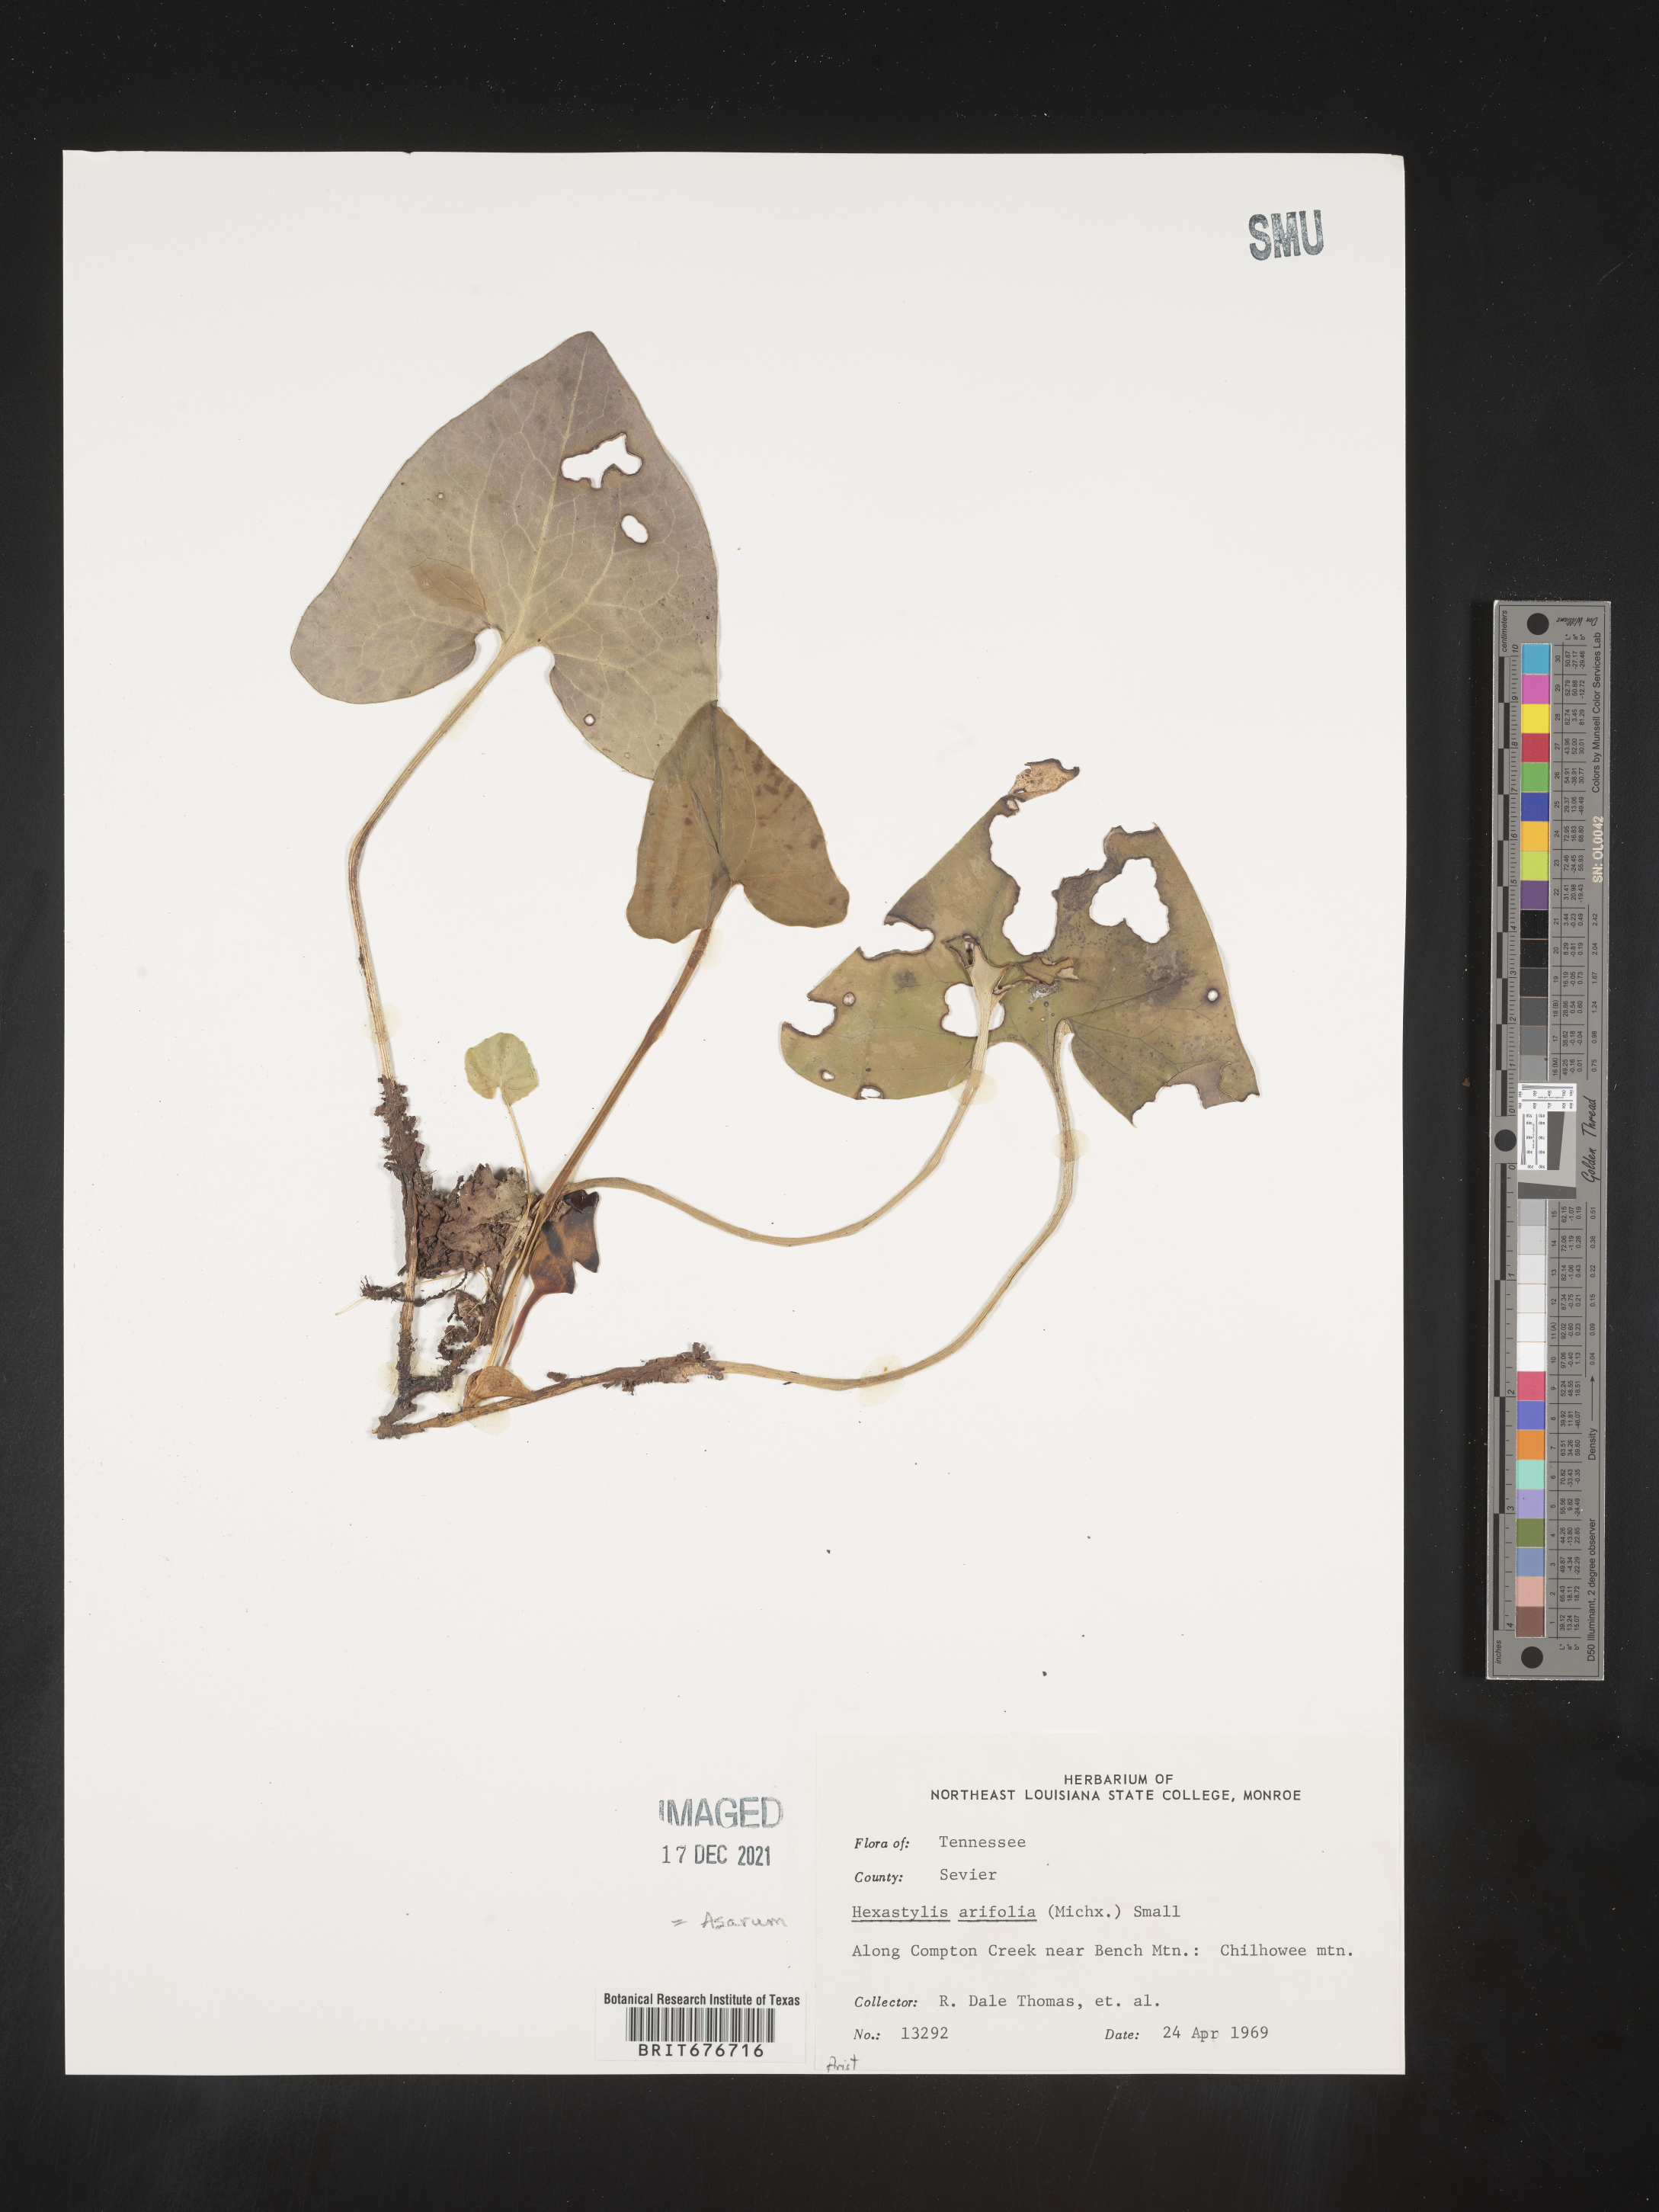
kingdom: Plantae
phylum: Tracheophyta
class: Magnoliopsida
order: Piperales
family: Aristolochiaceae
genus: Hexastylis
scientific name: Hexastylis arifolia
